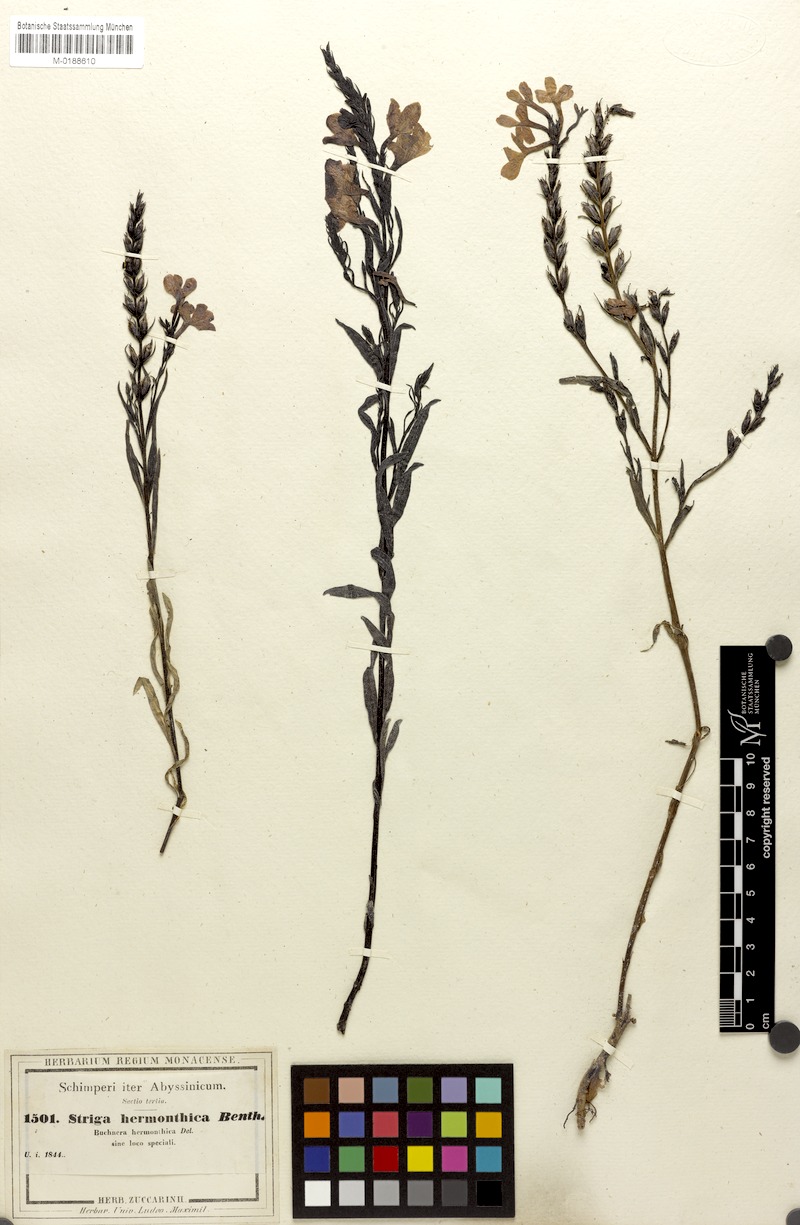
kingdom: Plantae
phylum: Tracheophyta
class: Magnoliopsida
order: Lamiales
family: Orobanchaceae
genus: Striga
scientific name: Striga hermonthica
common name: Purple witchweed
